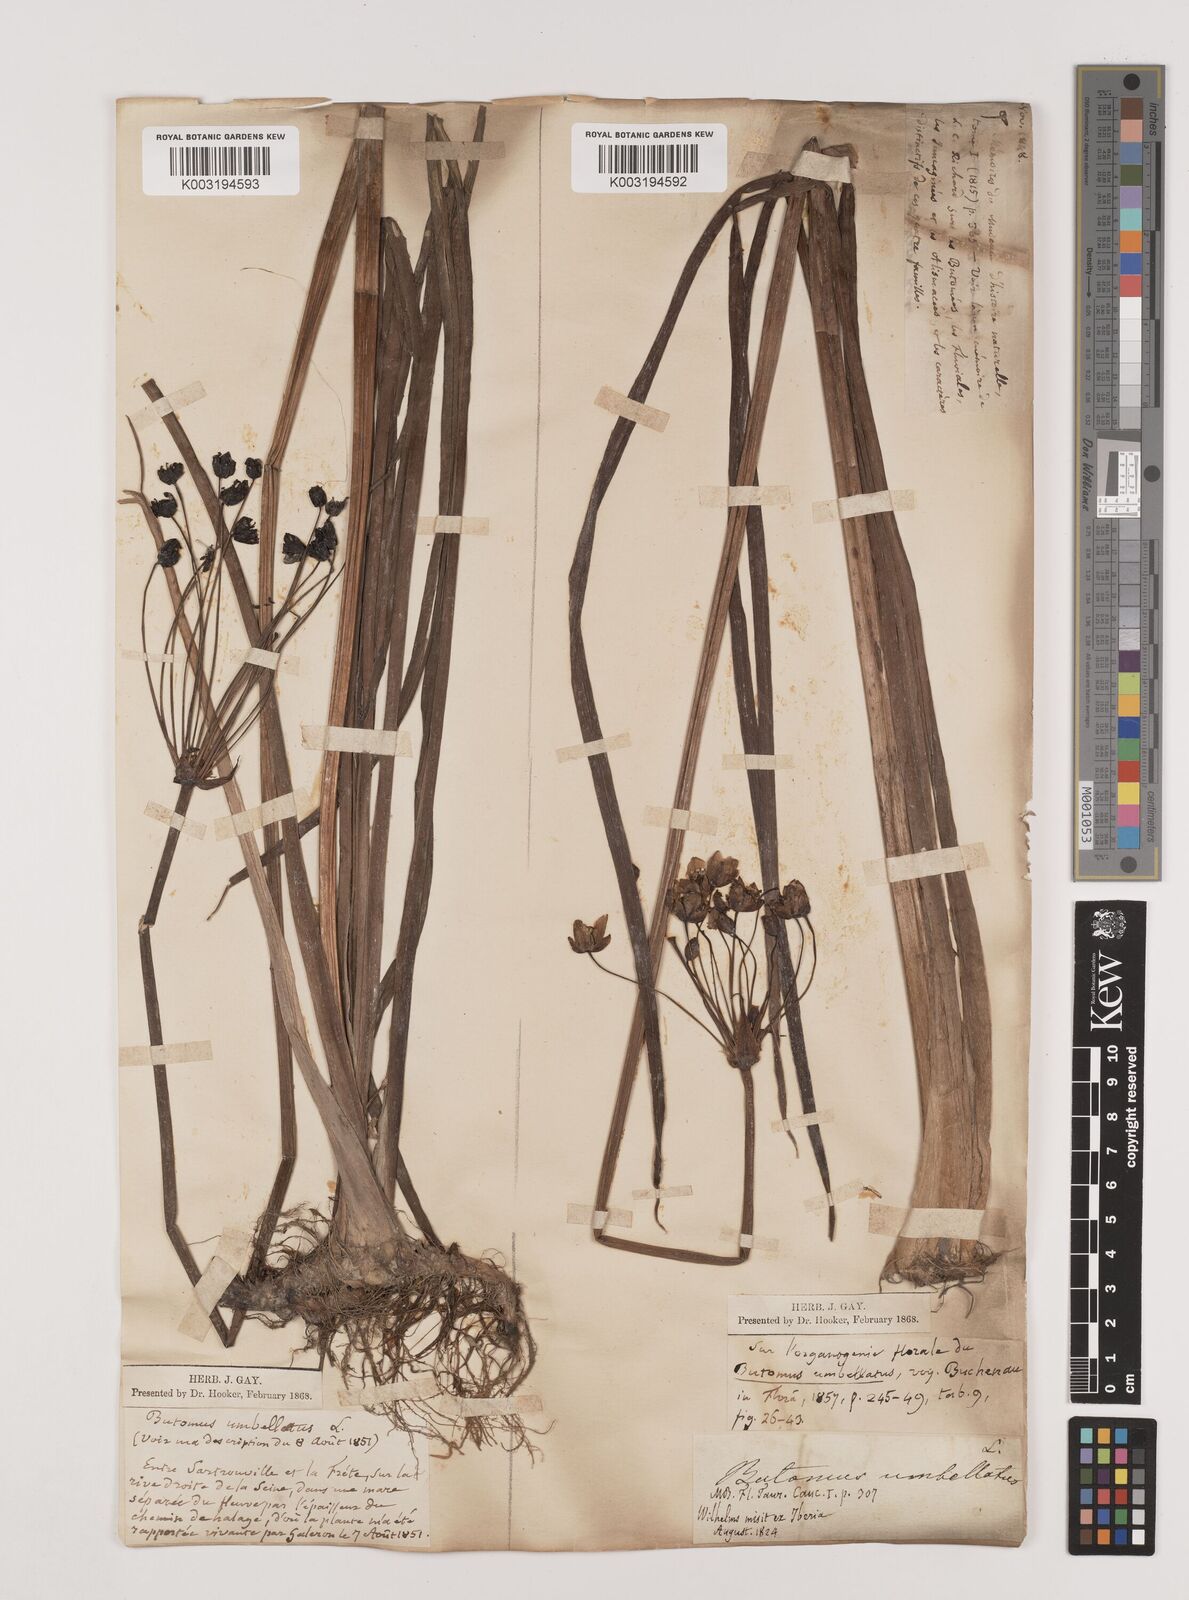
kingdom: Plantae
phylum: Tracheophyta
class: Liliopsida
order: Alismatales
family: Butomaceae
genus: Butomus
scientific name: Butomus umbellatus
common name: Flowering-rush
